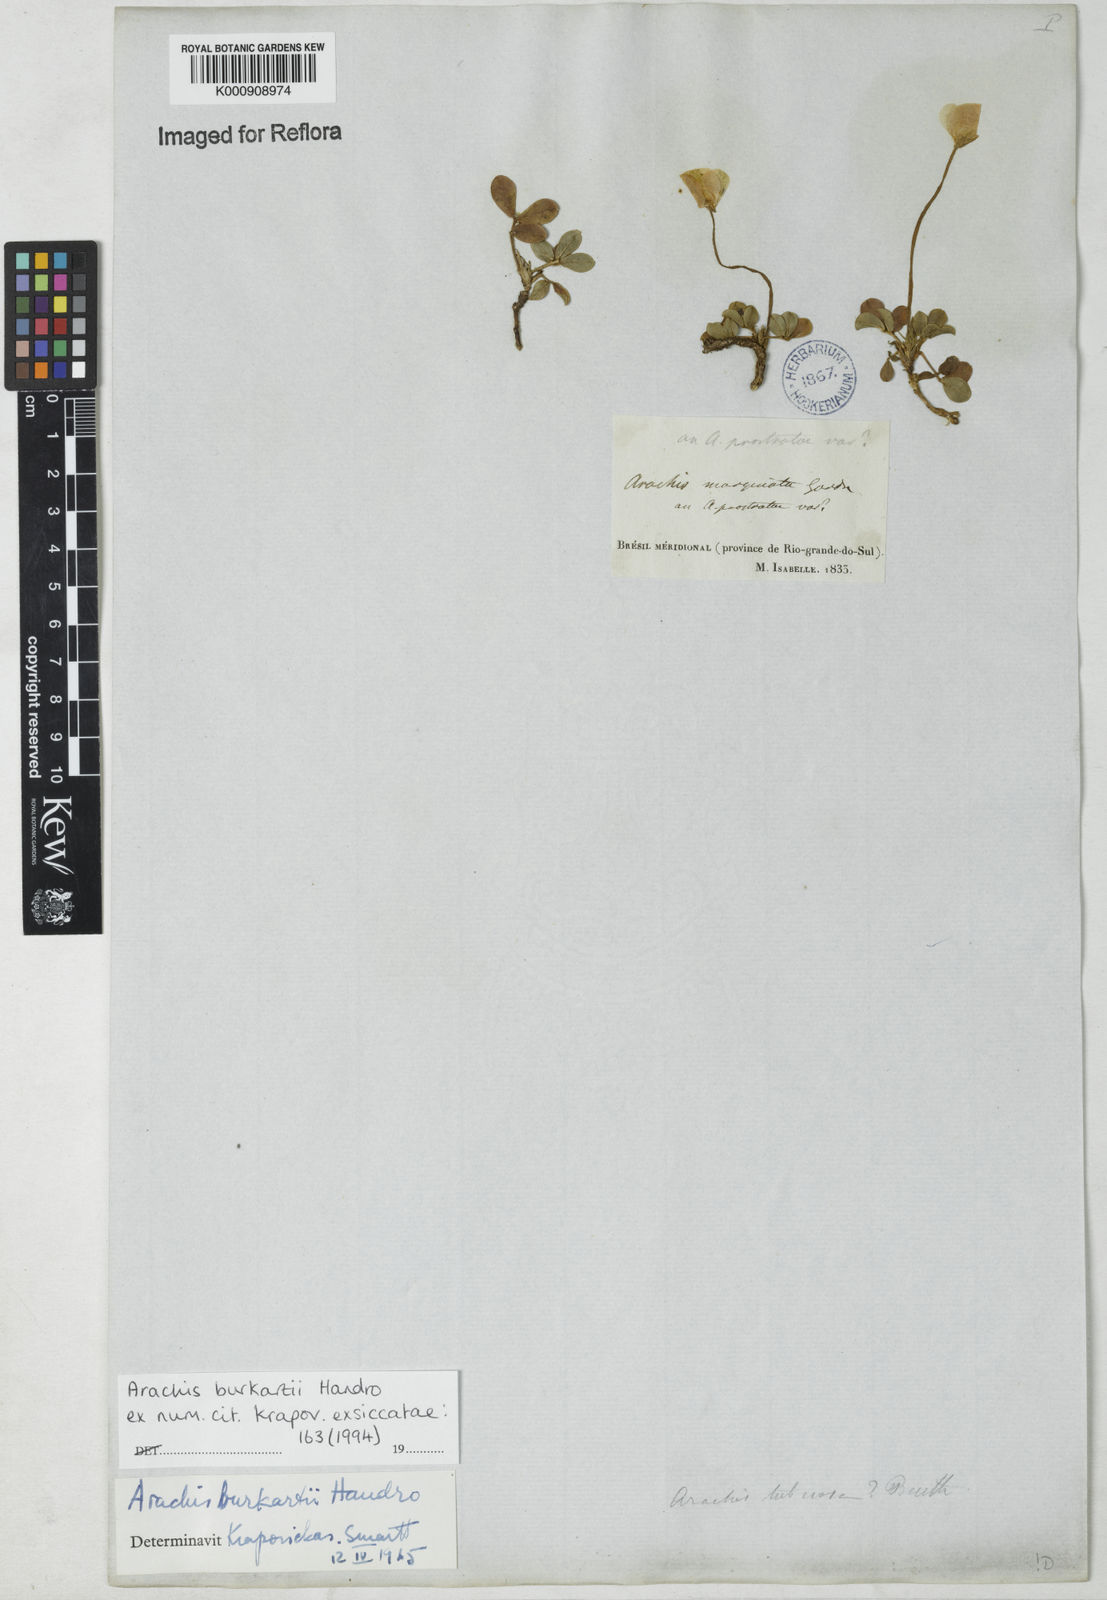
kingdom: Plantae
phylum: Tracheophyta
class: Magnoliopsida
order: Fabales
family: Fabaceae
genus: Arachis
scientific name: Arachis burkartii
